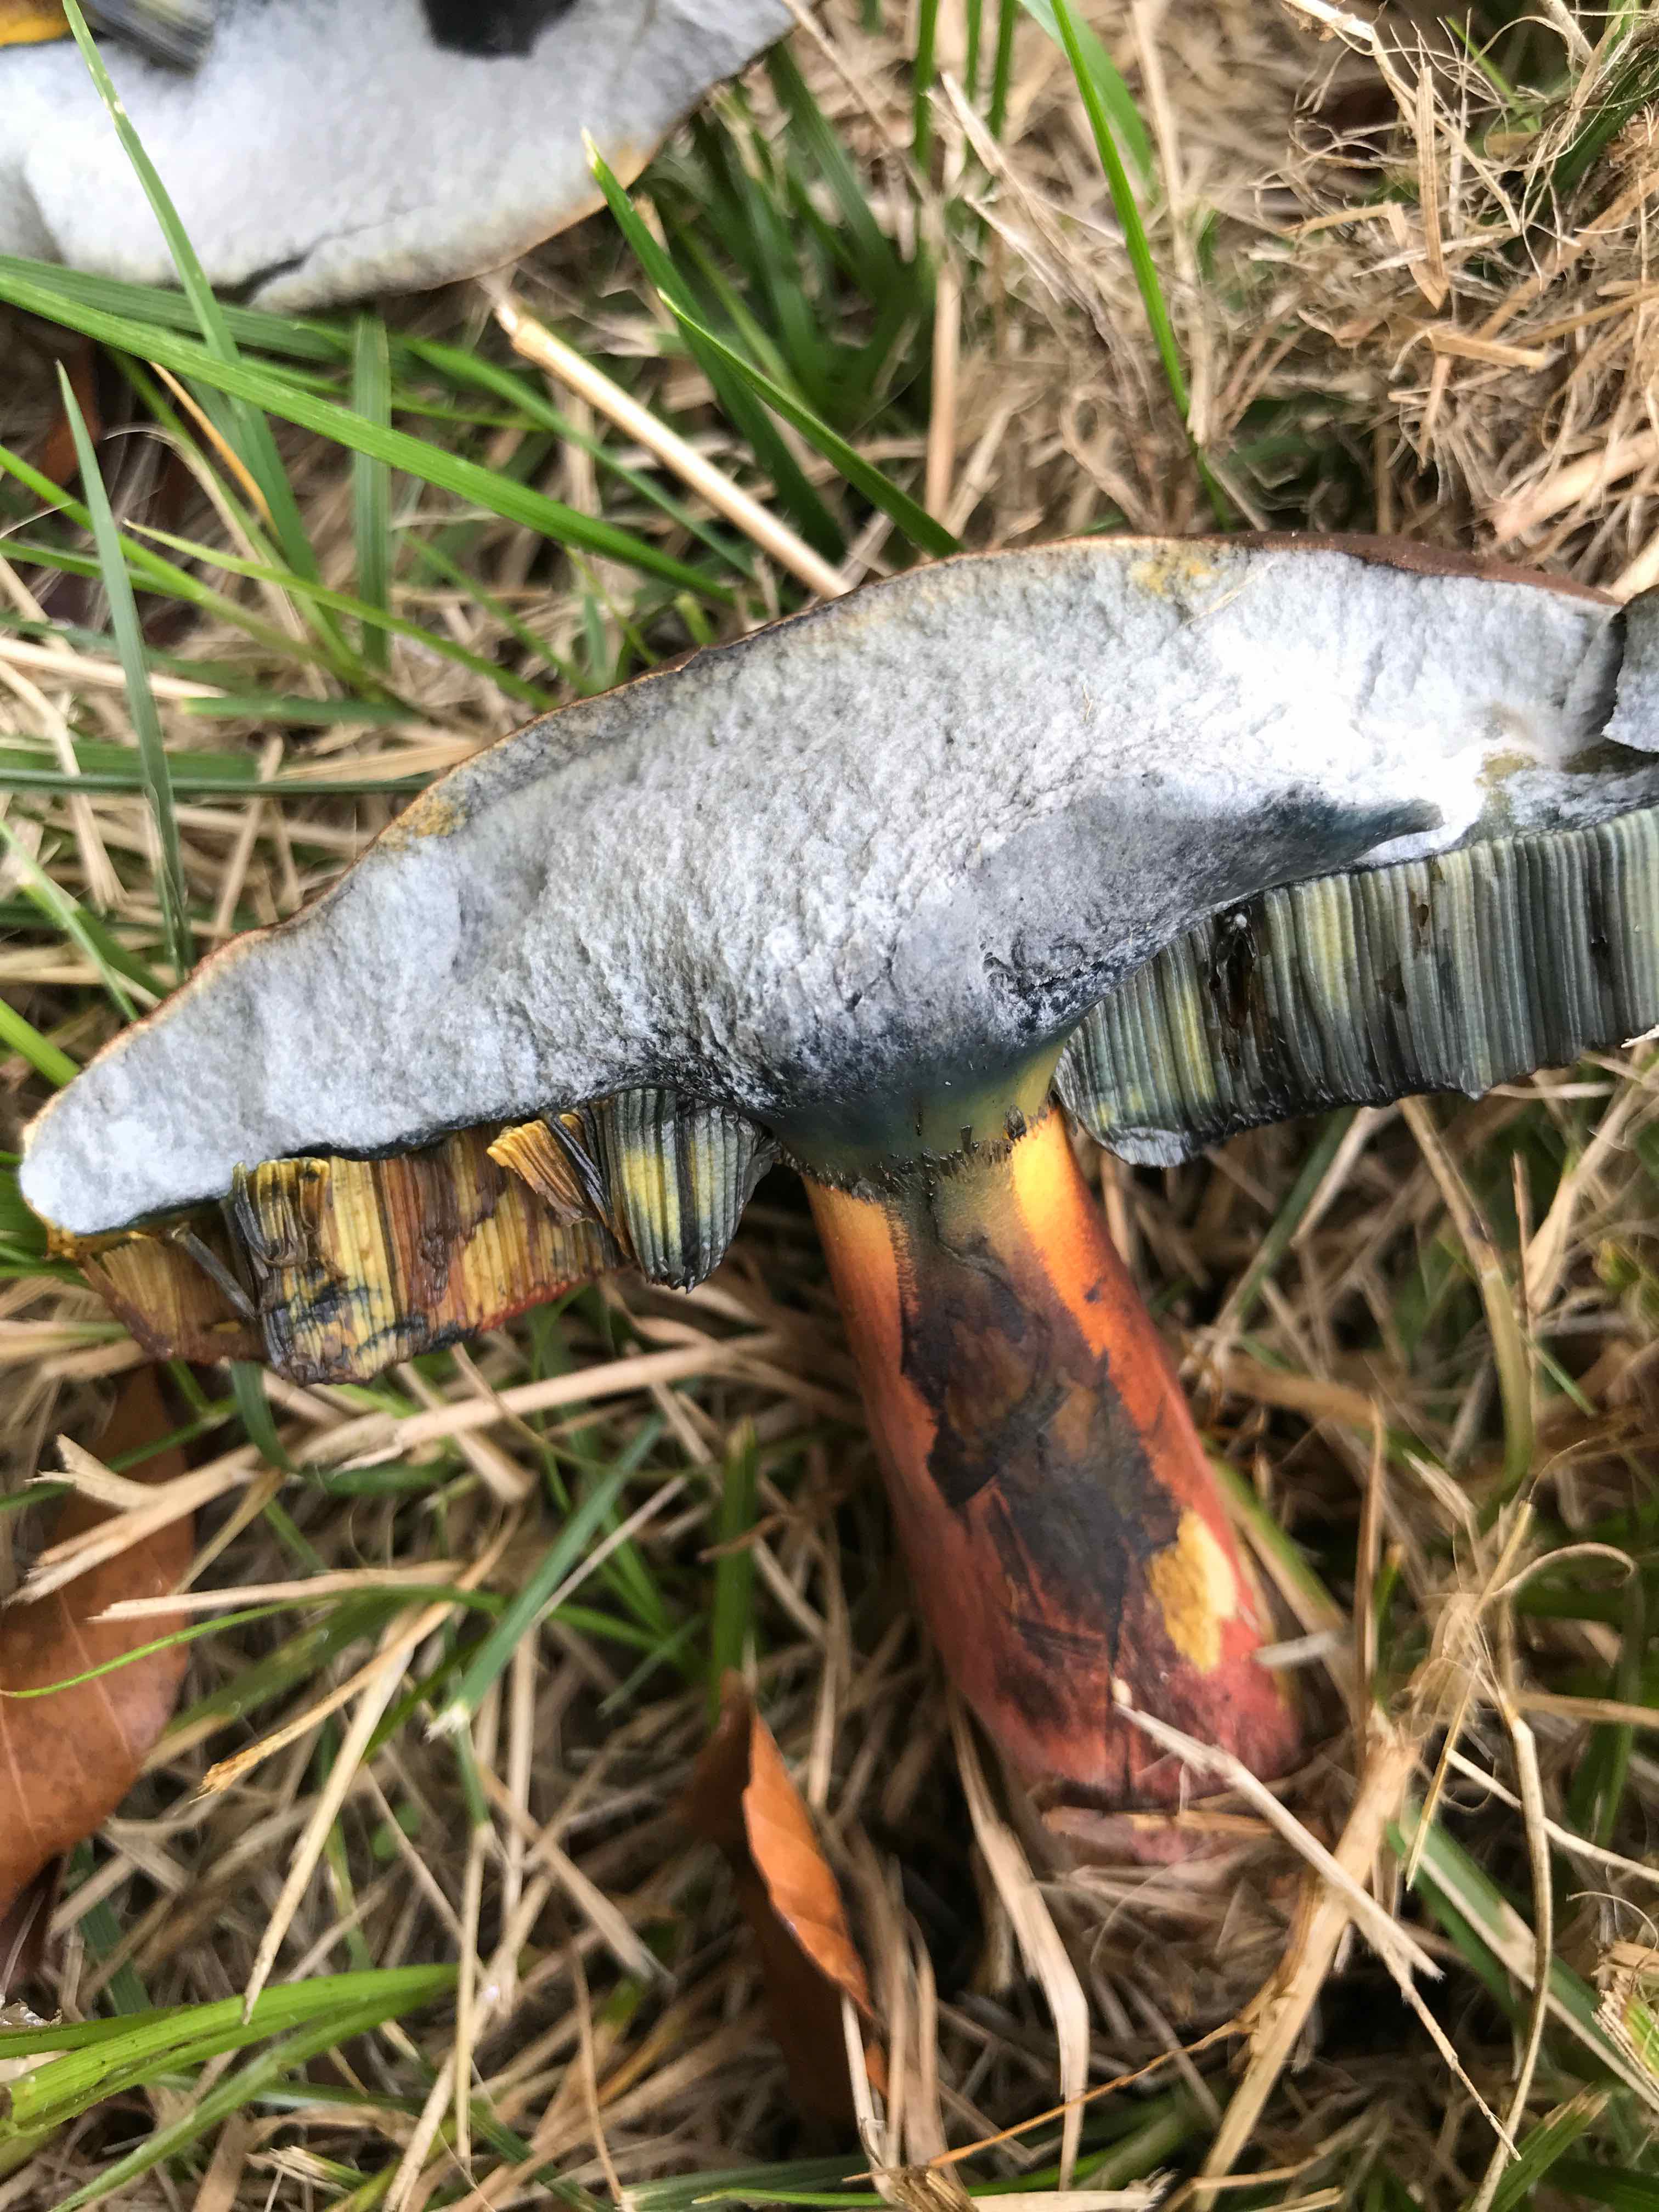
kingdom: Fungi
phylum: Basidiomycota
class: Agaricomycetes
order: Boletales
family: Boletaceae
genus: Cyanoboletus
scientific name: Cyanoboletus pulverulentus
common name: sortblånende rørhat
